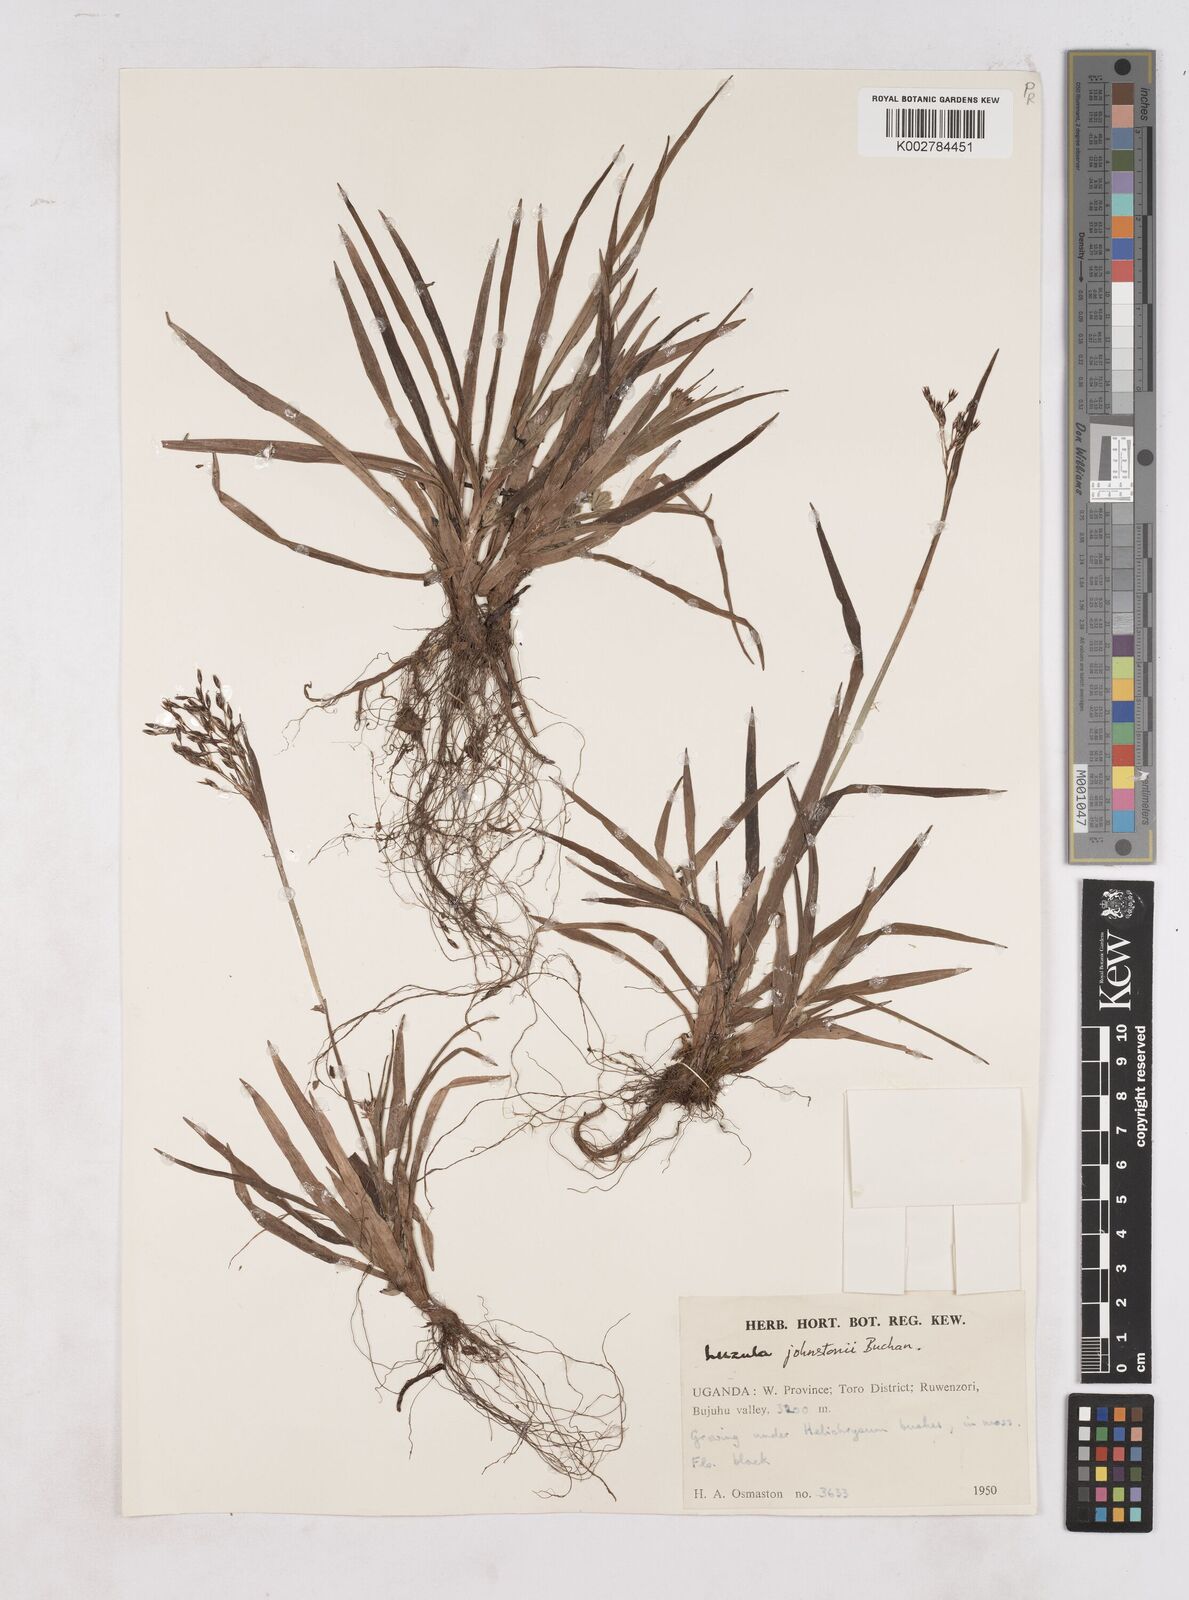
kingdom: Plantae
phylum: Tracheophyta
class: Liliopsida
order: Poales
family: Juncaceae
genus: Luzula
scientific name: Luzula johnstonii
